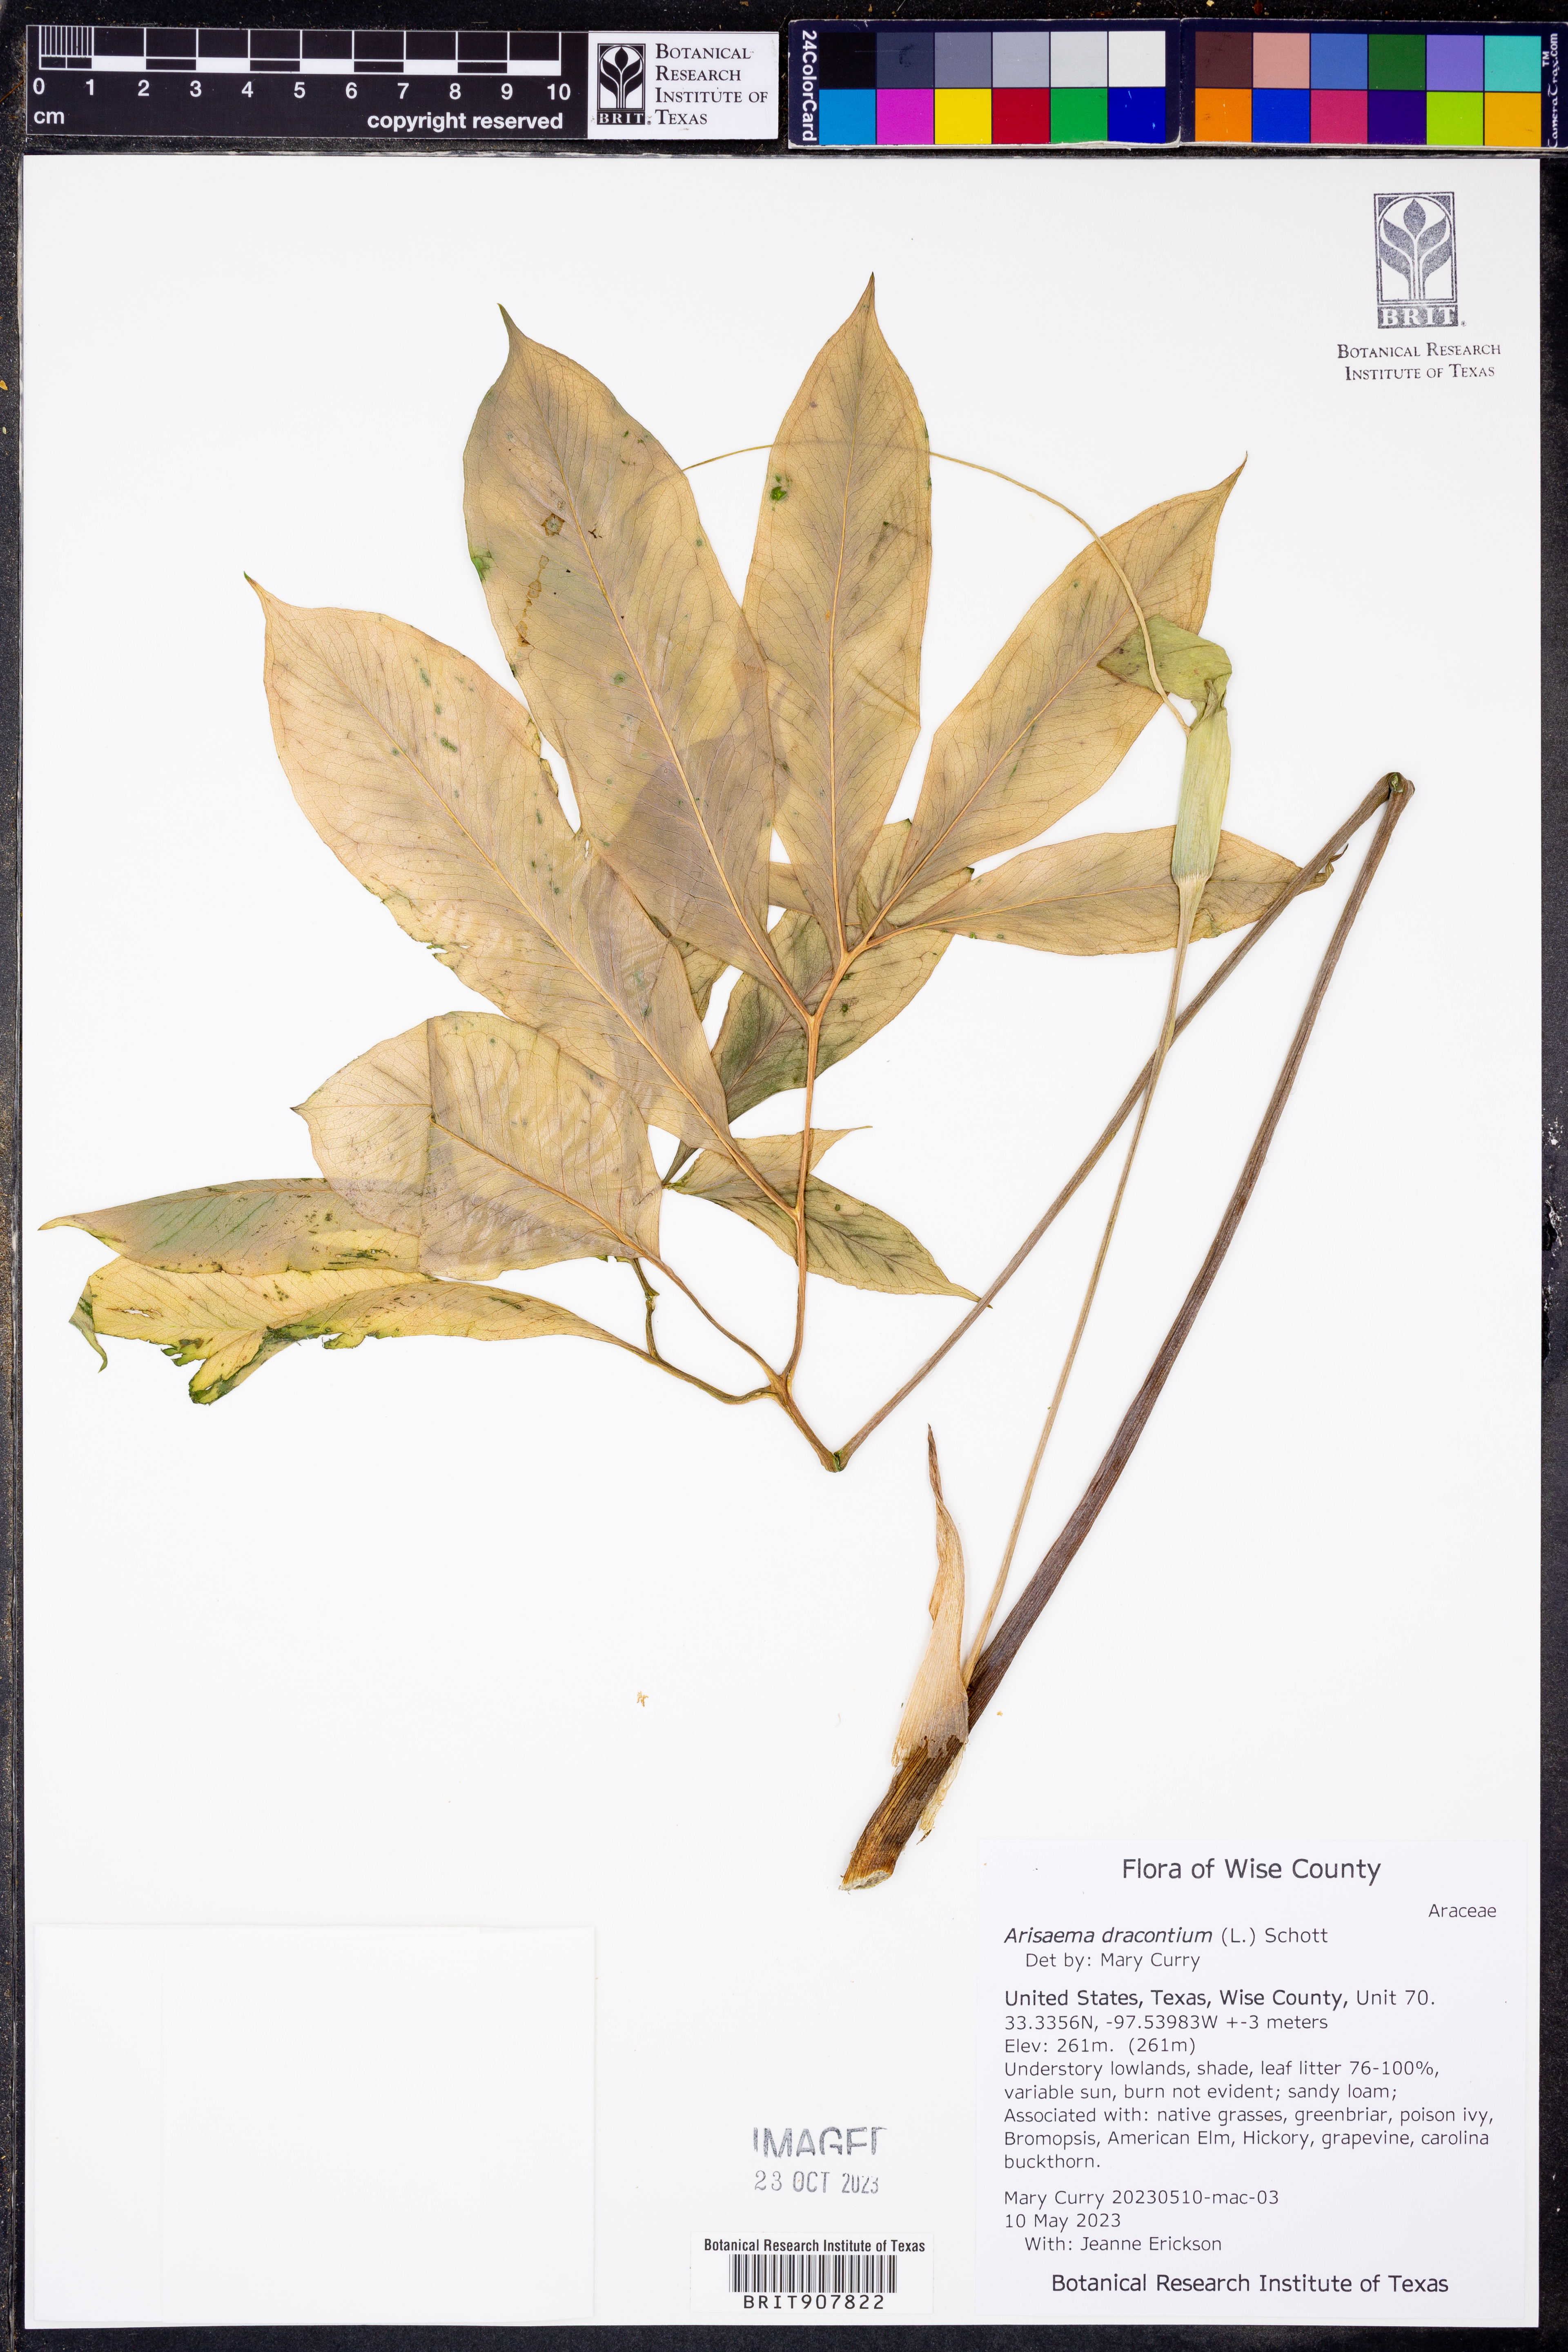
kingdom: Plantae
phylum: Tracheophyta
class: Liliopsida
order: Alismatales
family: Araceae
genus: Arisaema
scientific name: Arisaema dracontium
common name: Dragon-arum
